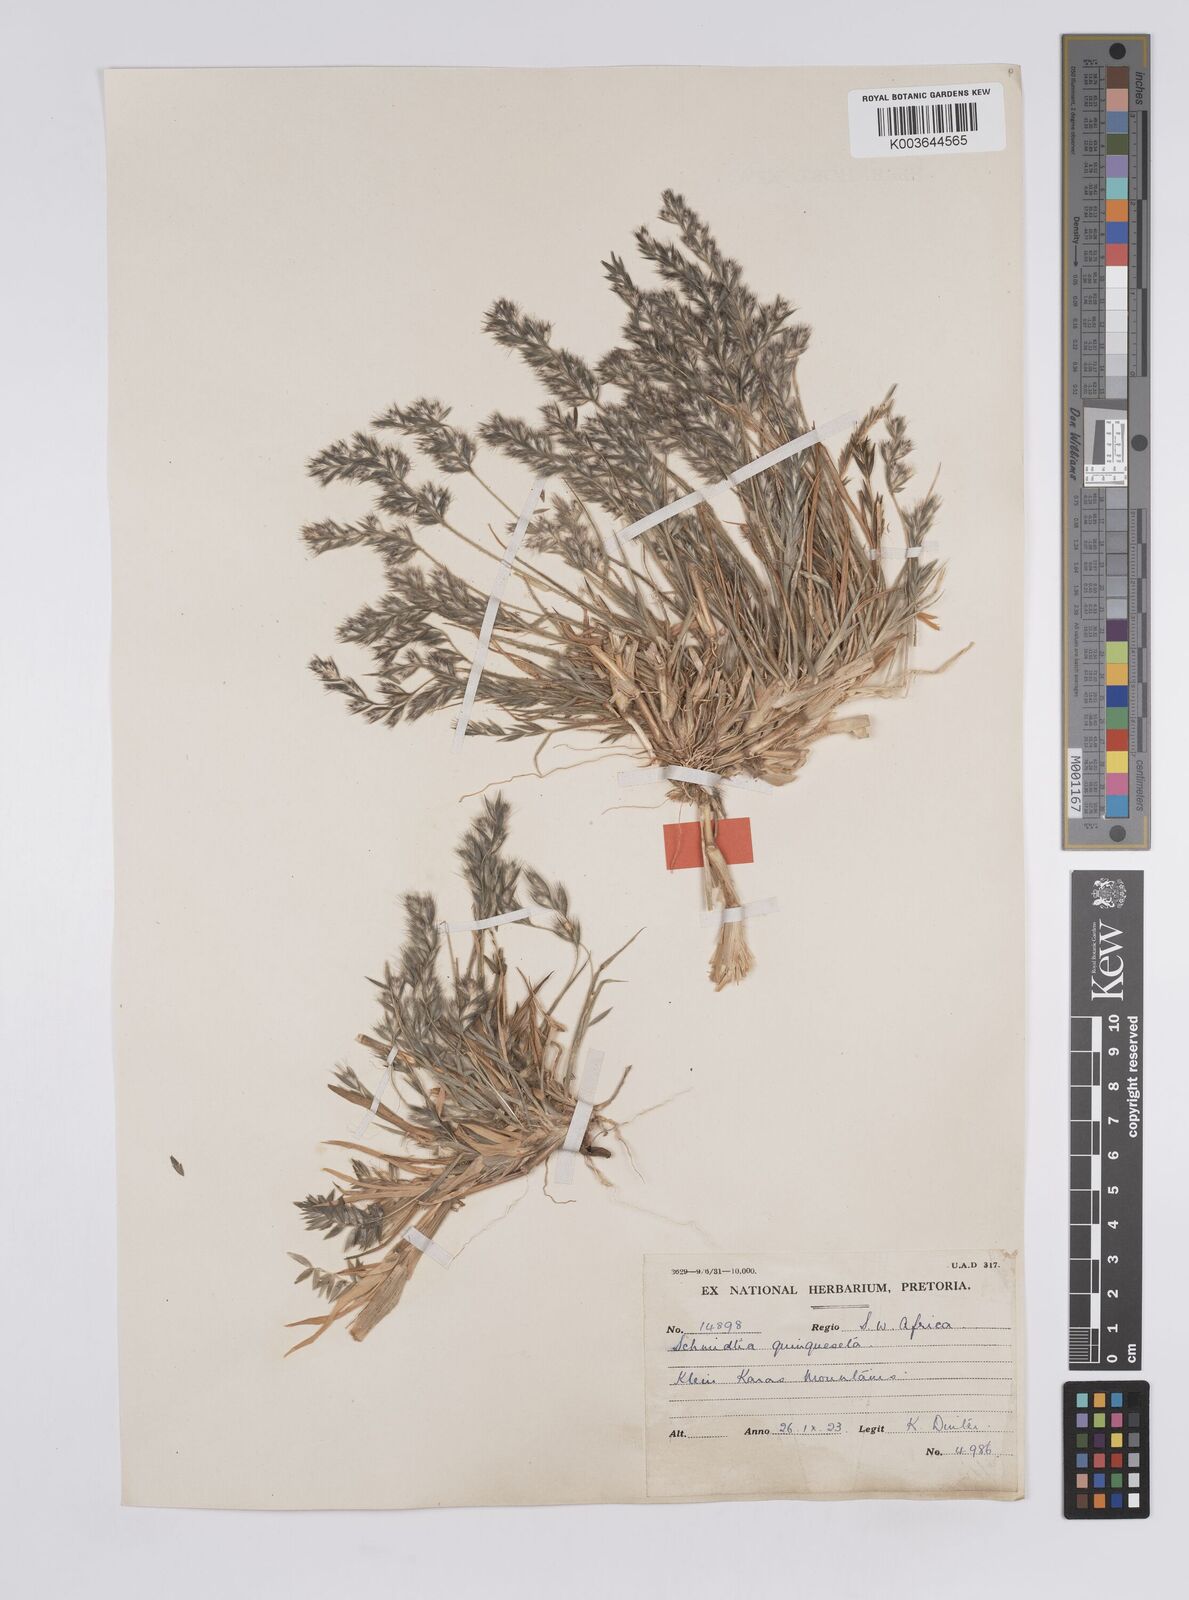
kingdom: Plantae
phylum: Tracheophyta
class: Liliopsida
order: Poales
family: Poaceae
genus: Schmidtia
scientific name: Schmidtia kalahariensis
